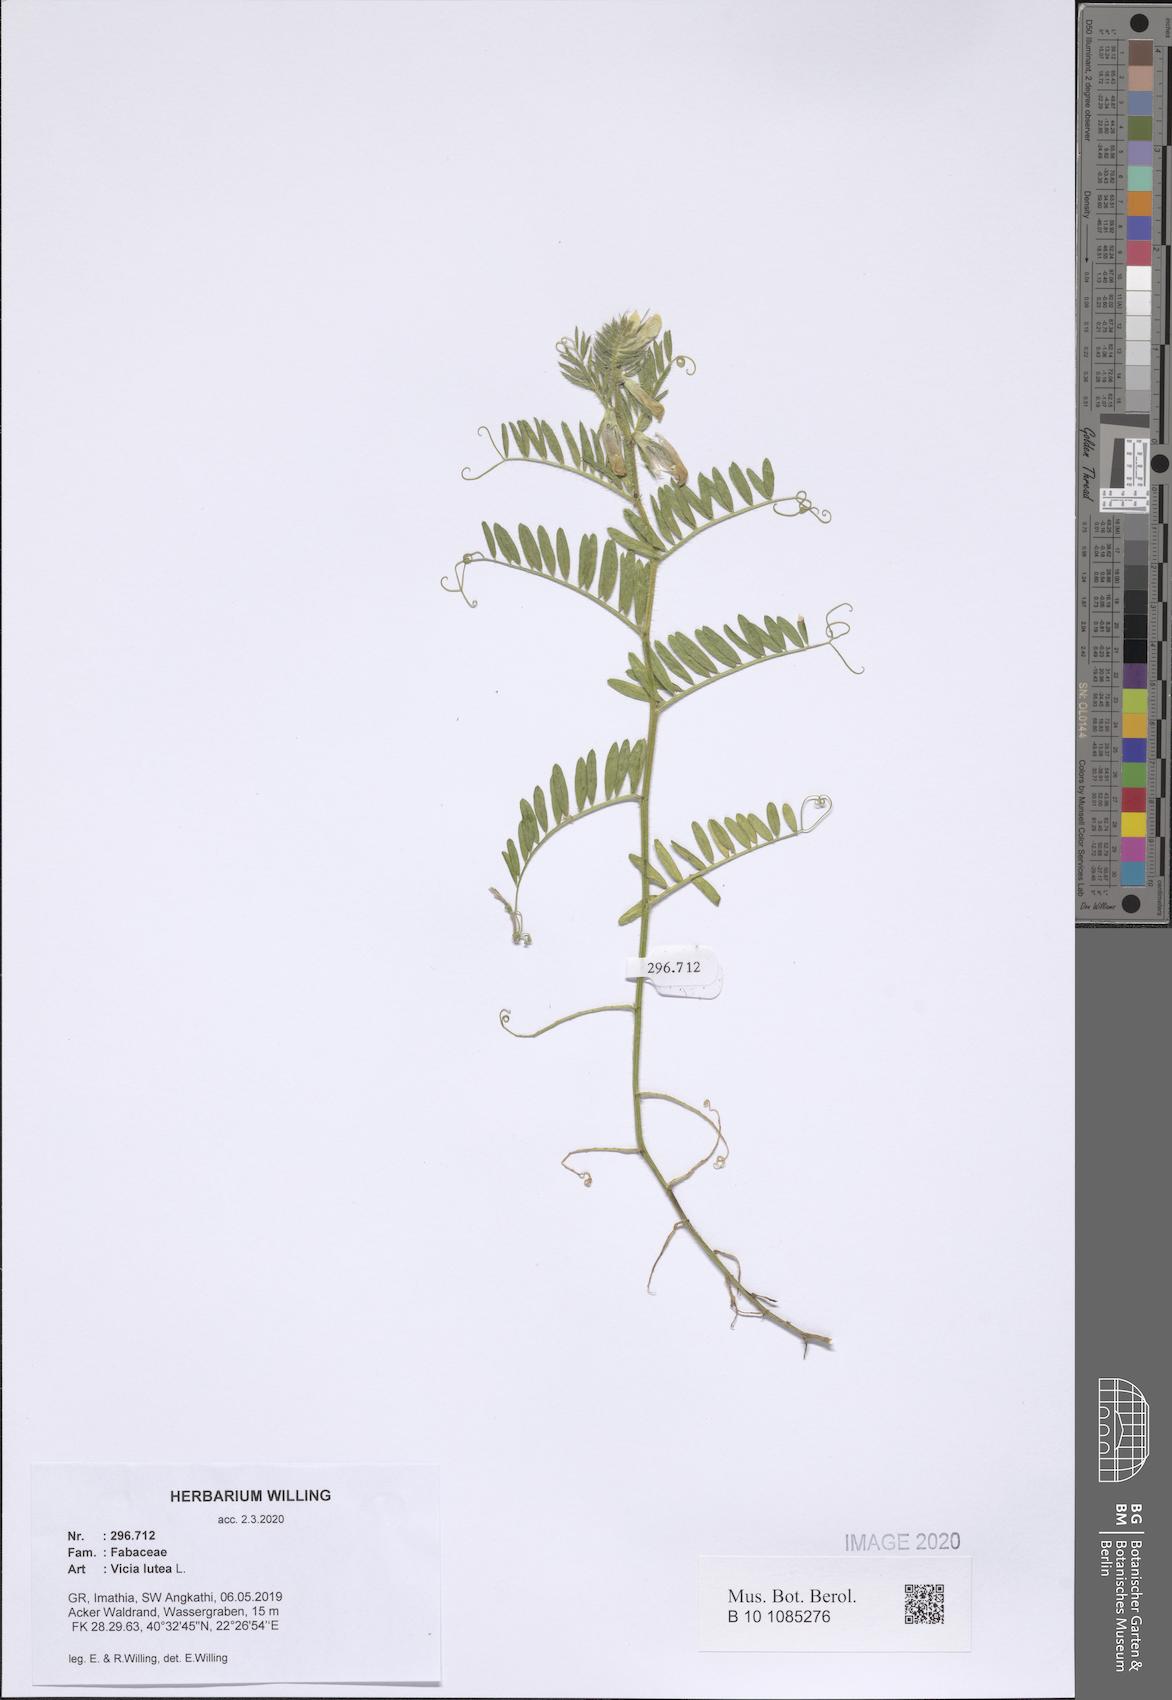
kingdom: Plantae
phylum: Tracheophyta
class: Magnoliopsida
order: Fabales
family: Fabaceae
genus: Vicia
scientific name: Vicia lutea
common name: Smooth yellow vetch
